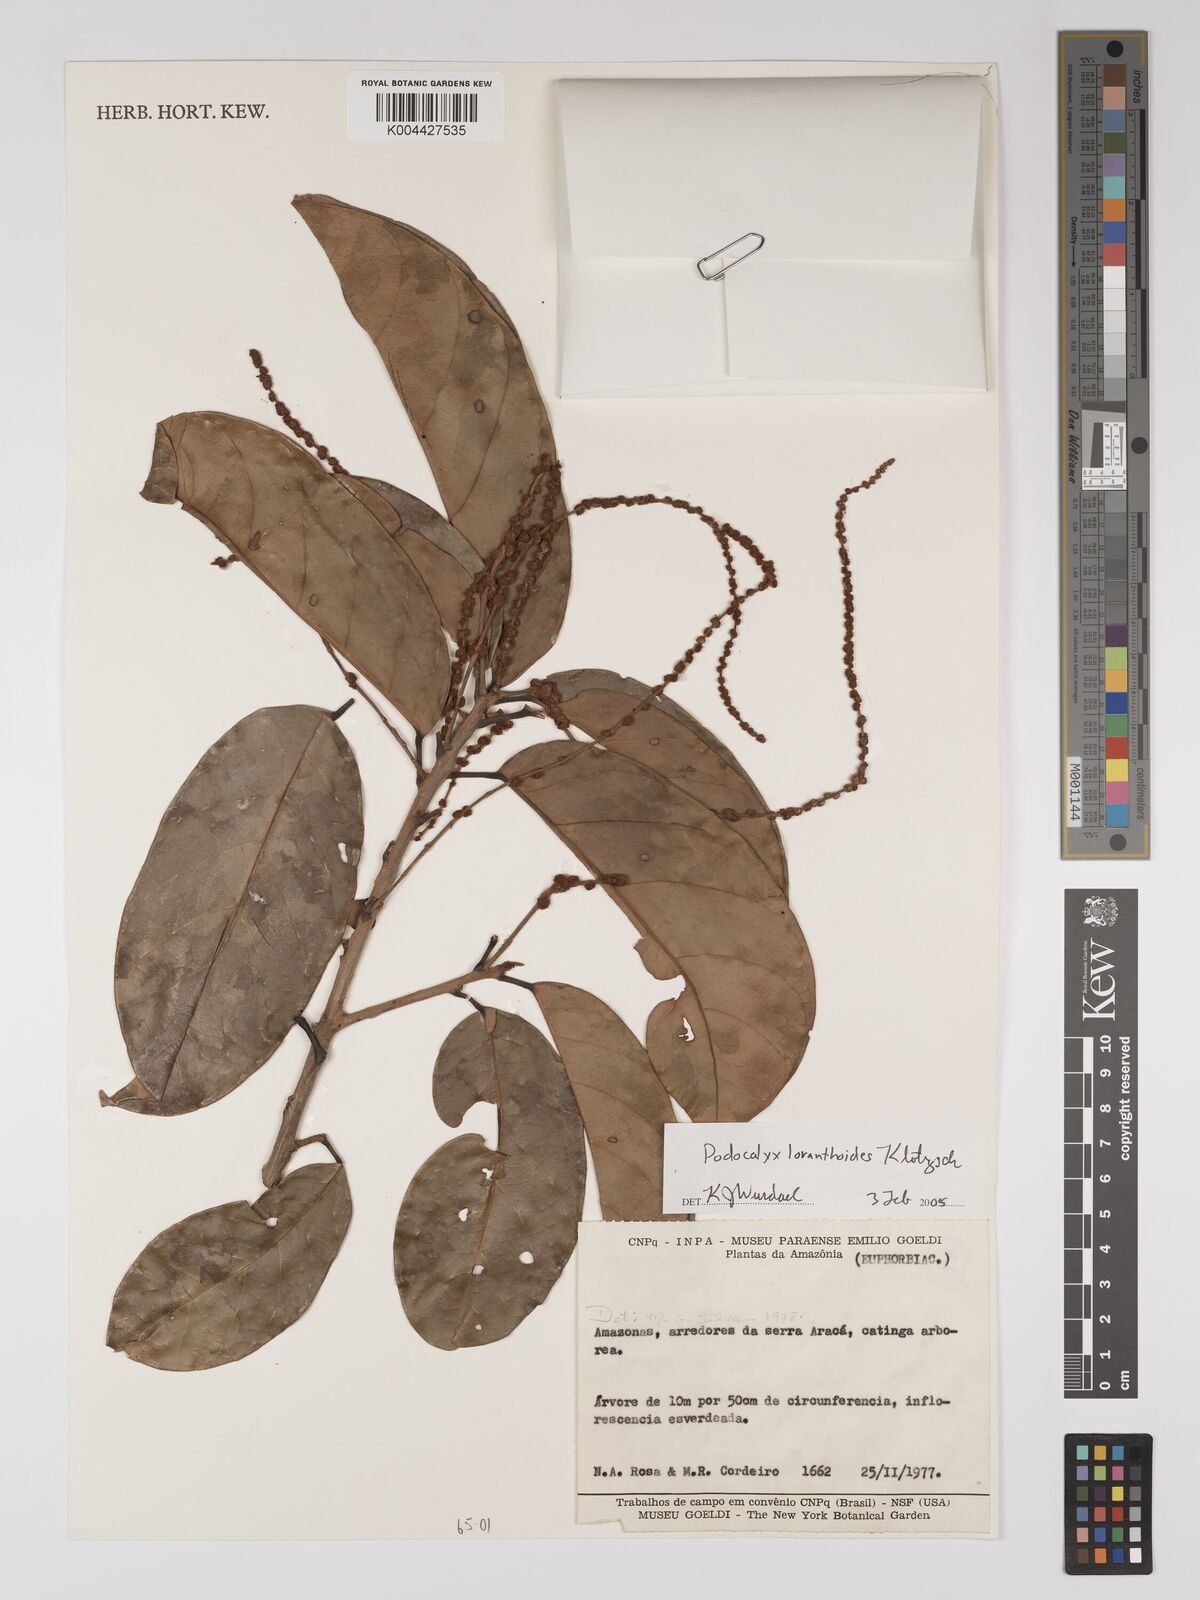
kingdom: Plantae
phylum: Tracheophyta
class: Magnoliopsida
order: Malpighiales
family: Picrodendraceae
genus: Podocalyx
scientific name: Podocalyx loranthoides
